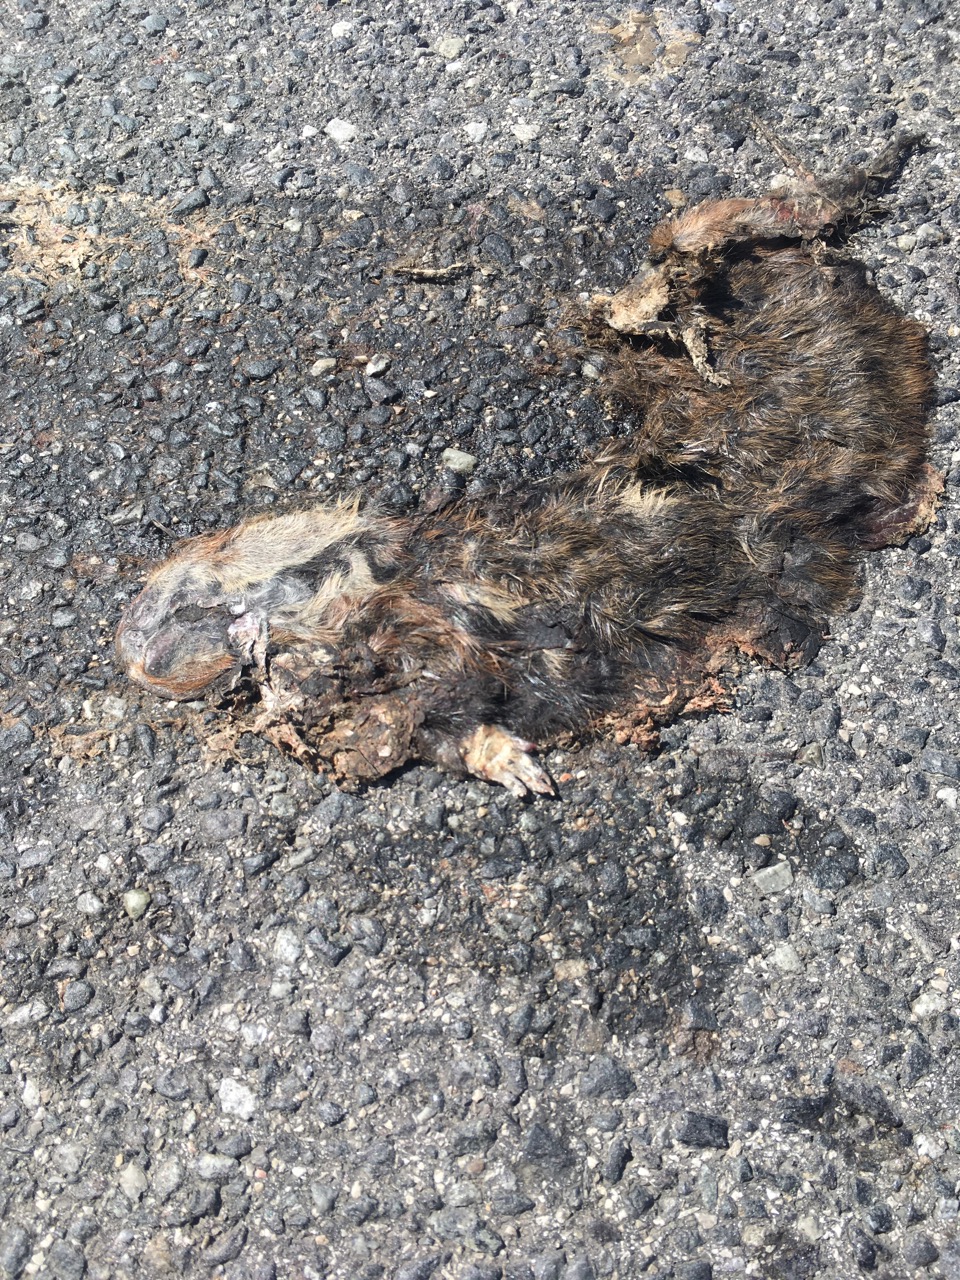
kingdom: Animalia
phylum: Chordata
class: Mammalia
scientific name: Mammalia
